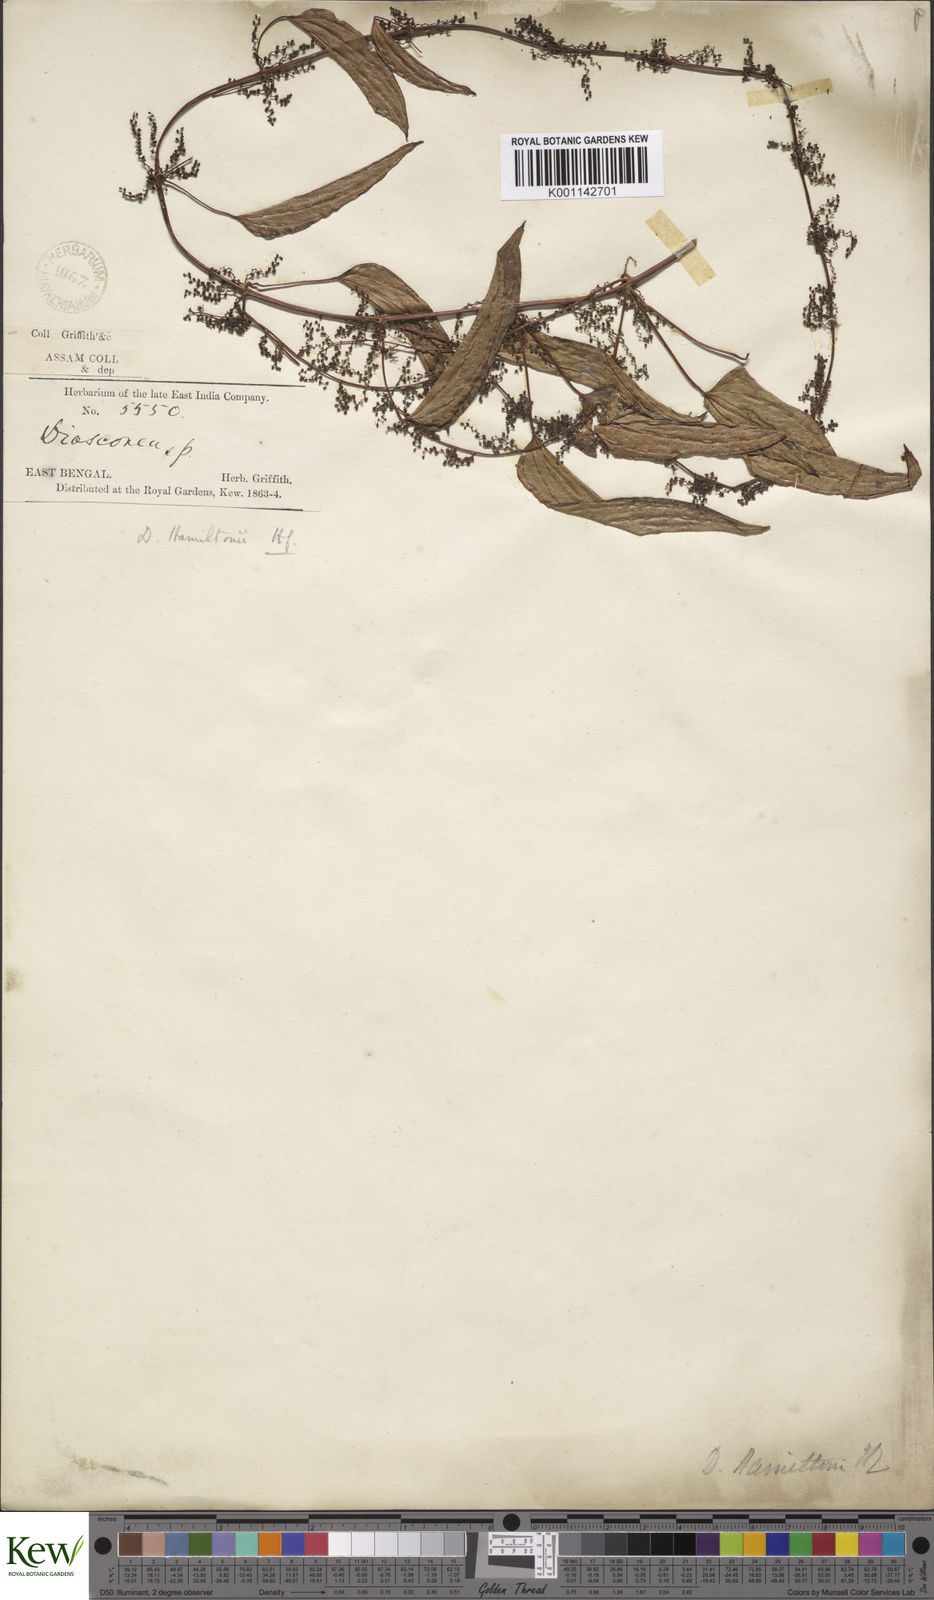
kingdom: Plantae
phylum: Tracheophyta
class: Liliopsida
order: Dioscoreales
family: Dioscoreaceae
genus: Dioscorea
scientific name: Dioscorea hamiltonii
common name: Mountain yam
